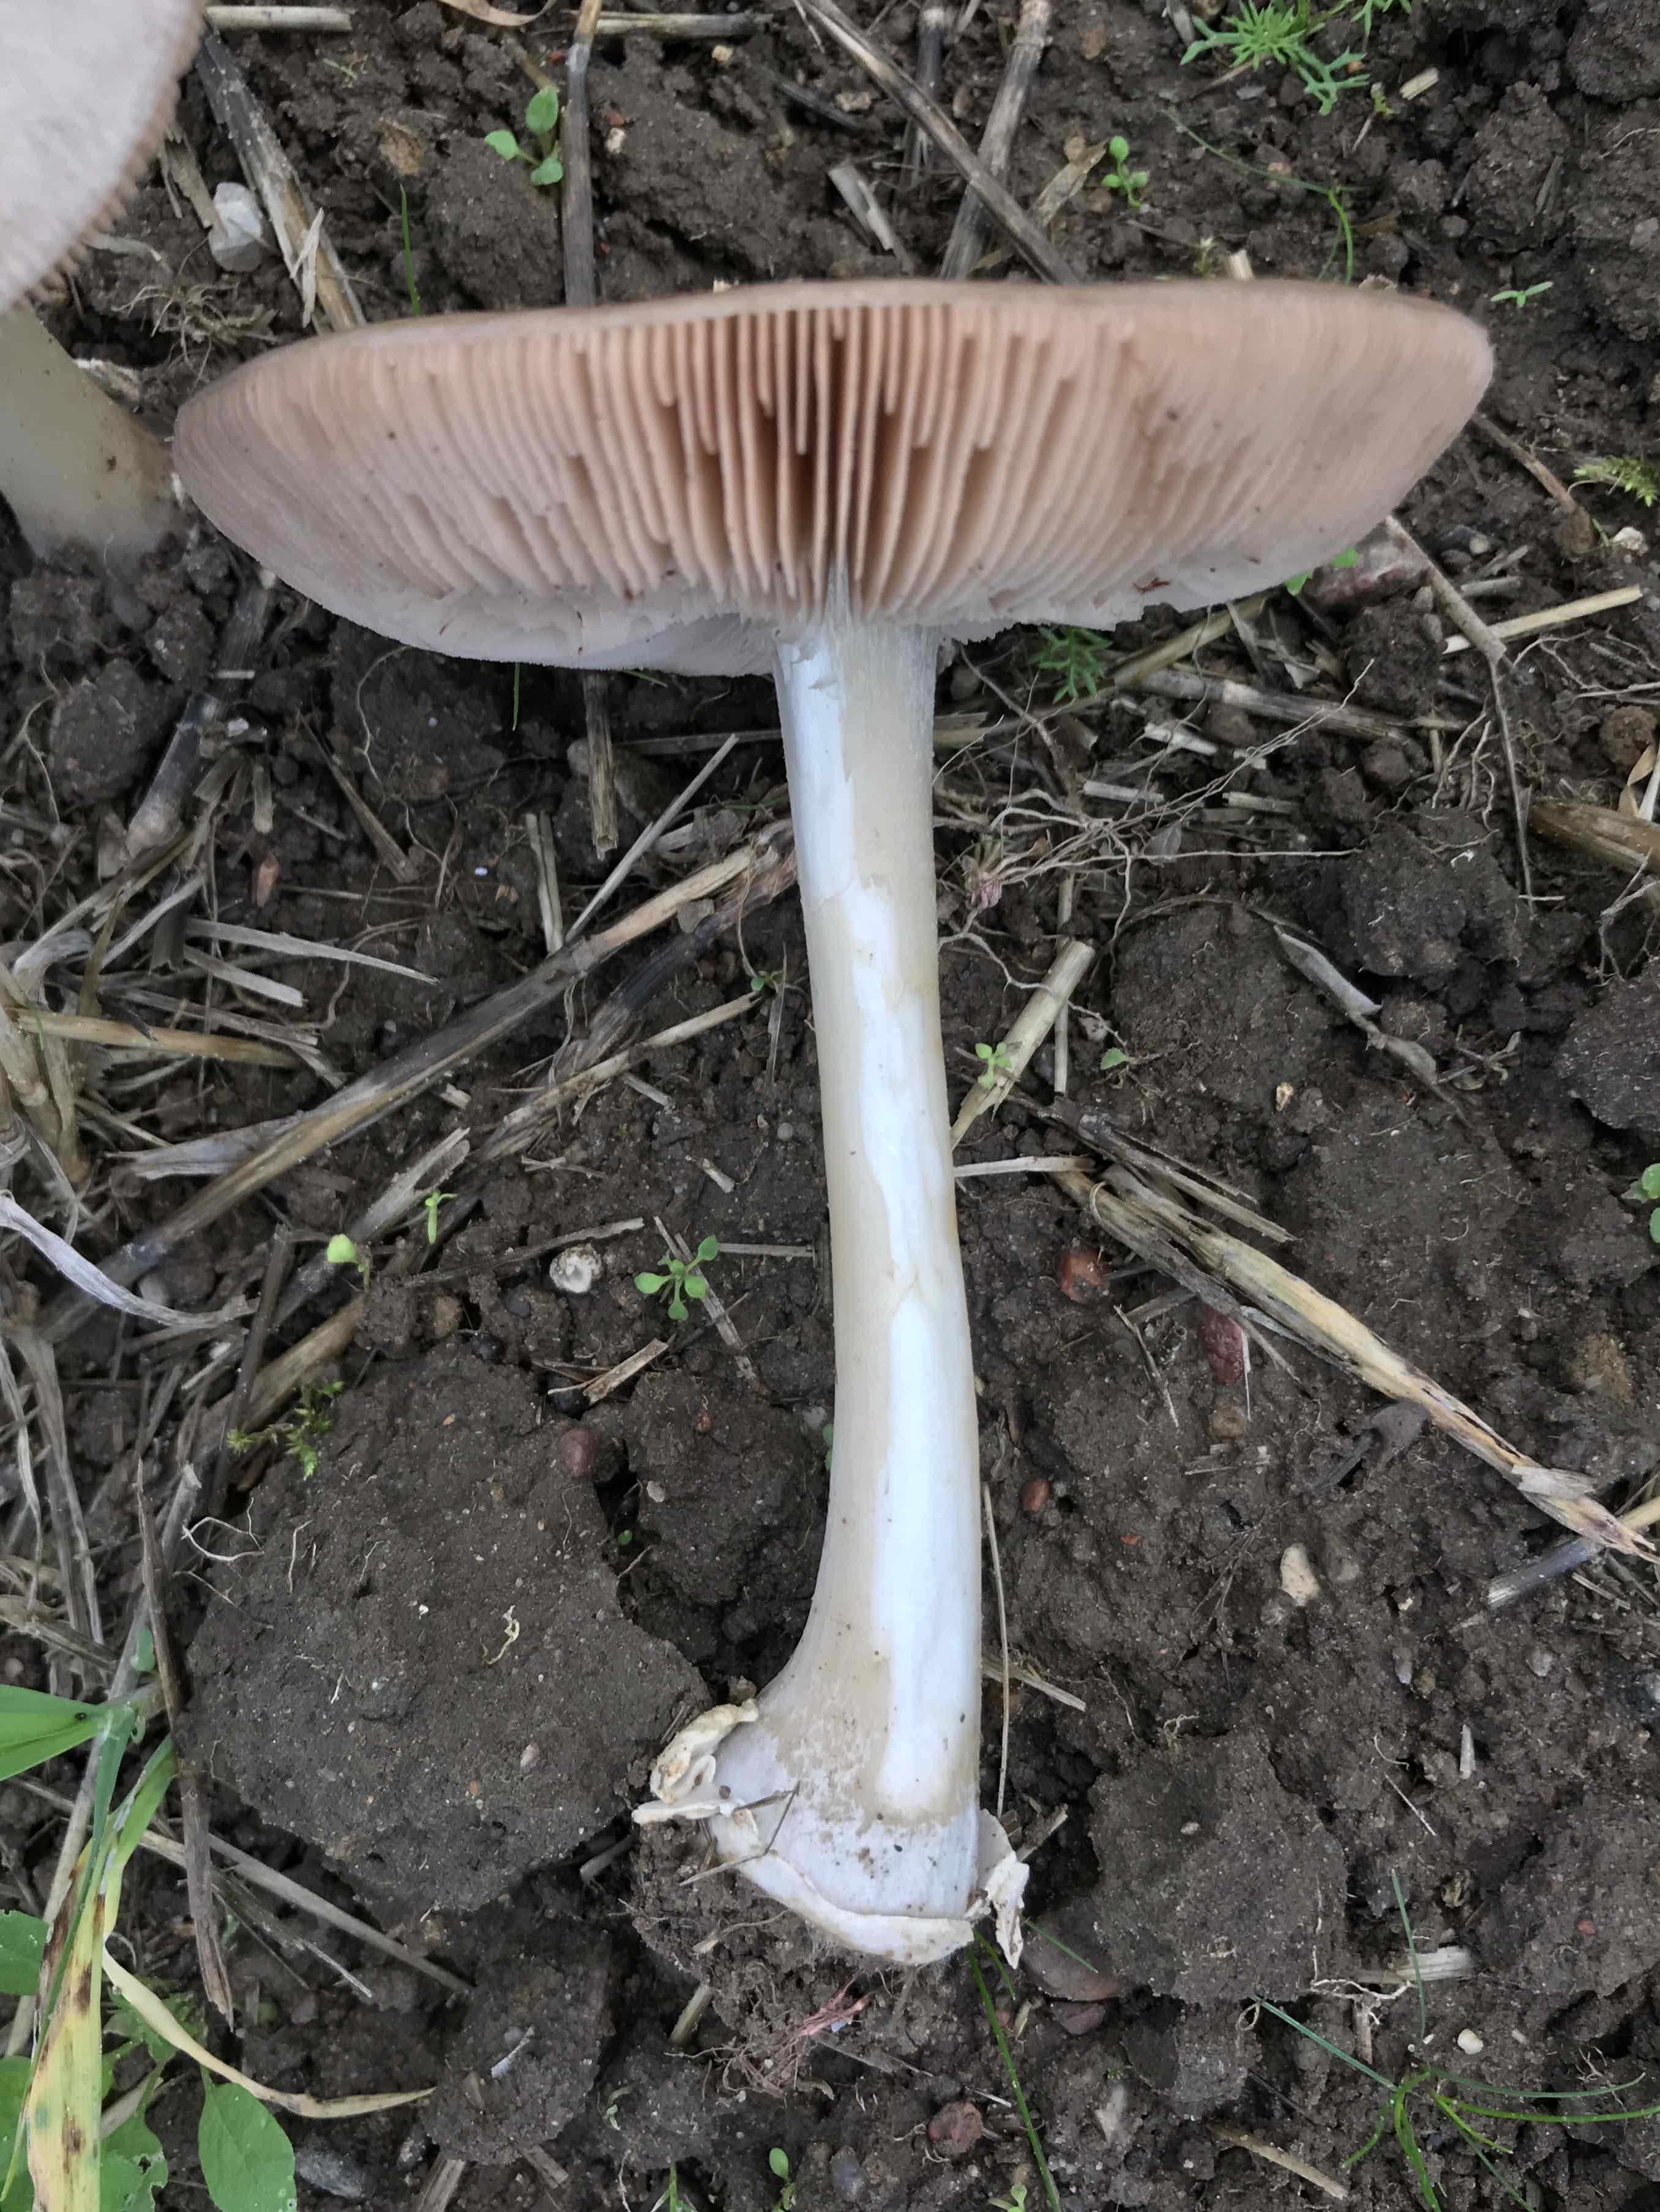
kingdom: Fungi
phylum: Basidiomycota
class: Agaricomycetes
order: Agaricales
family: Pluteaceae
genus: Volvopluteus
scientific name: Volvopluteus gloiocephalus
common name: høj posesvamp
